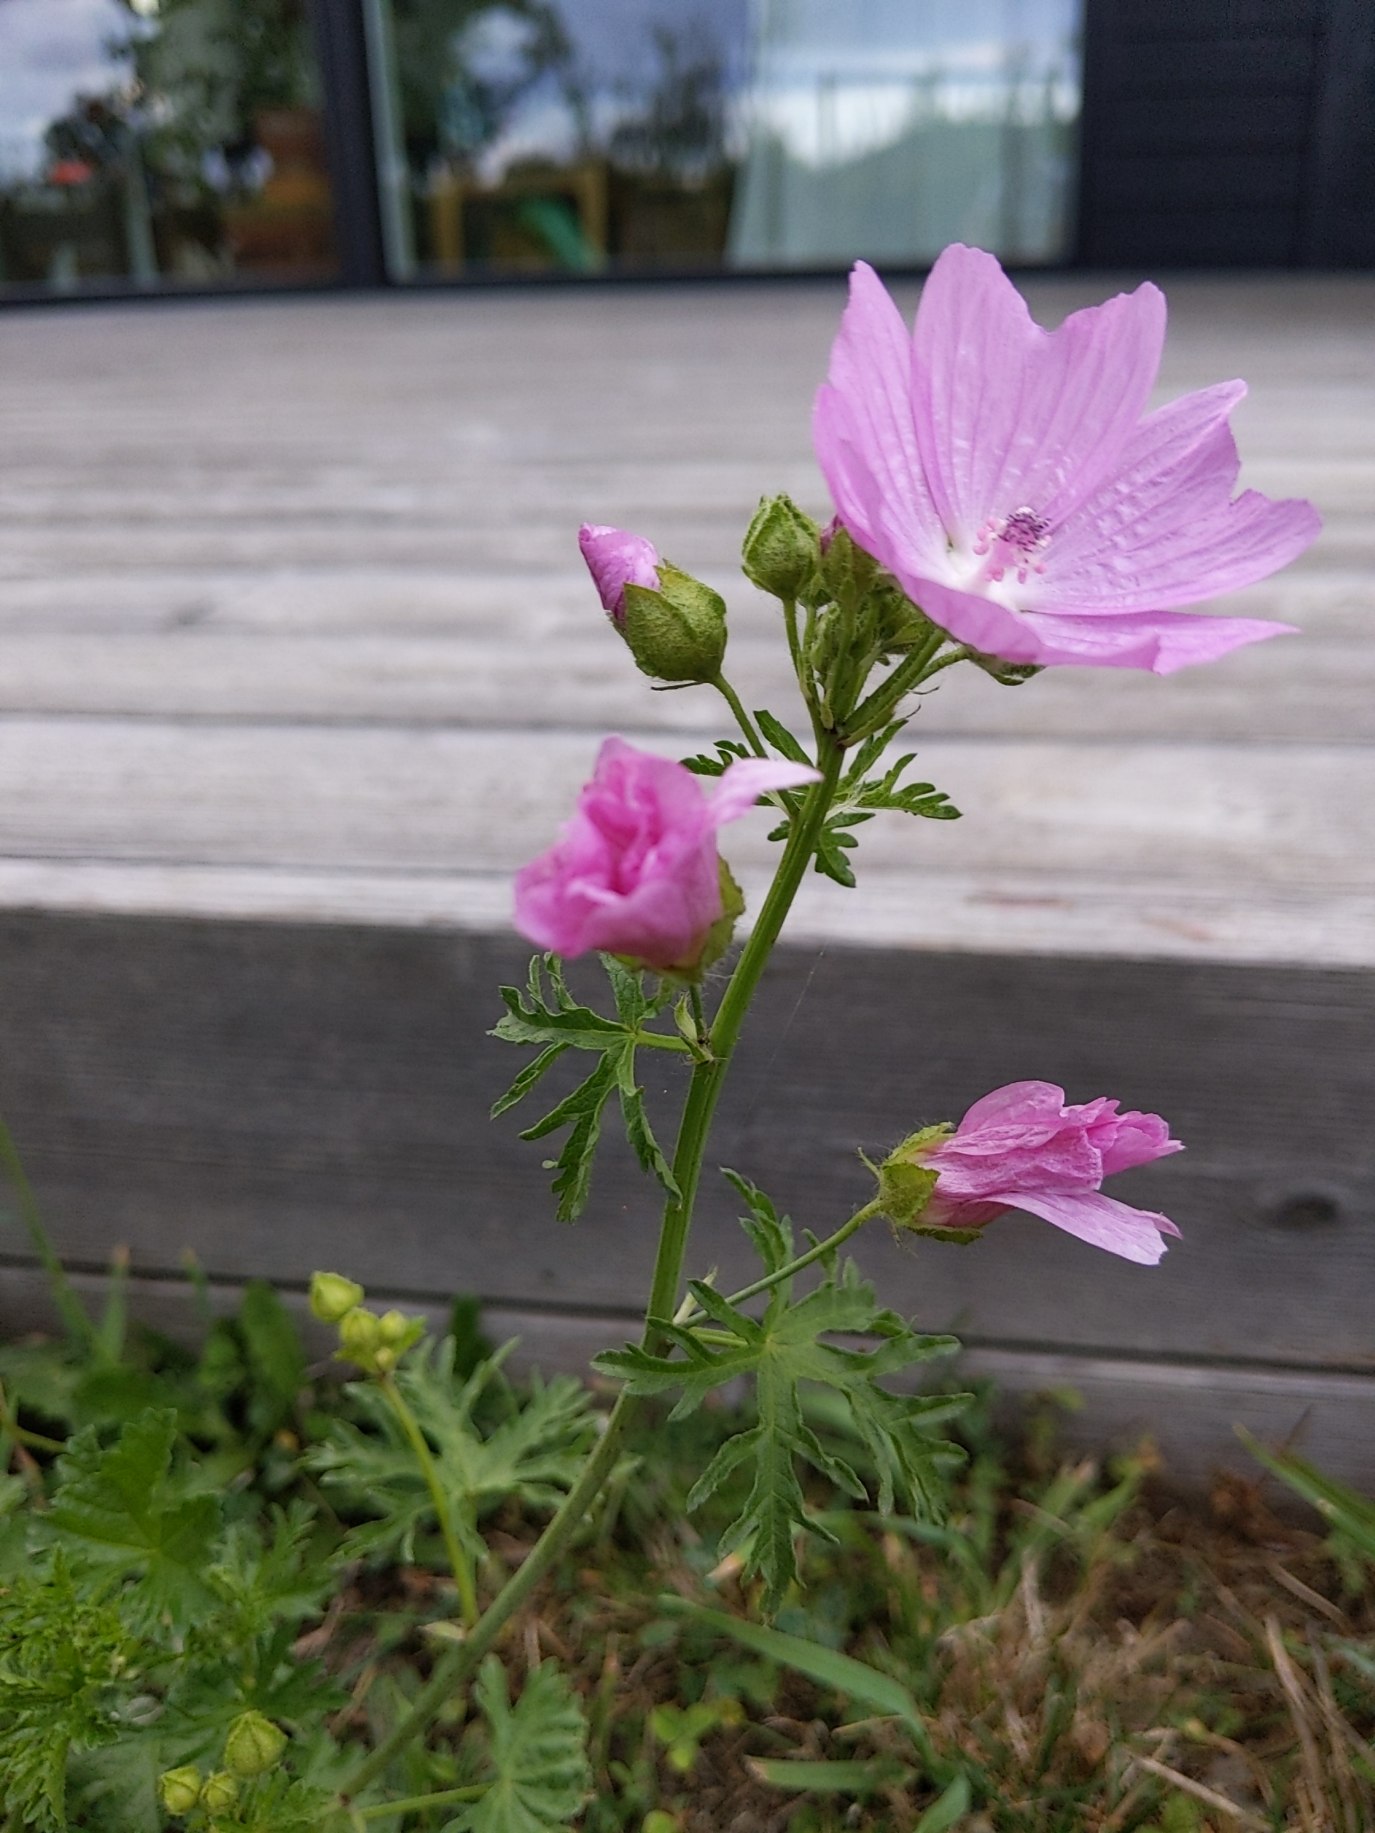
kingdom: Plantae
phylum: Tracheophyta
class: Magnoliopsida
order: Malvales
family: Malvaceae
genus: Malva
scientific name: Malva moschata
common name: Moskus-katost
